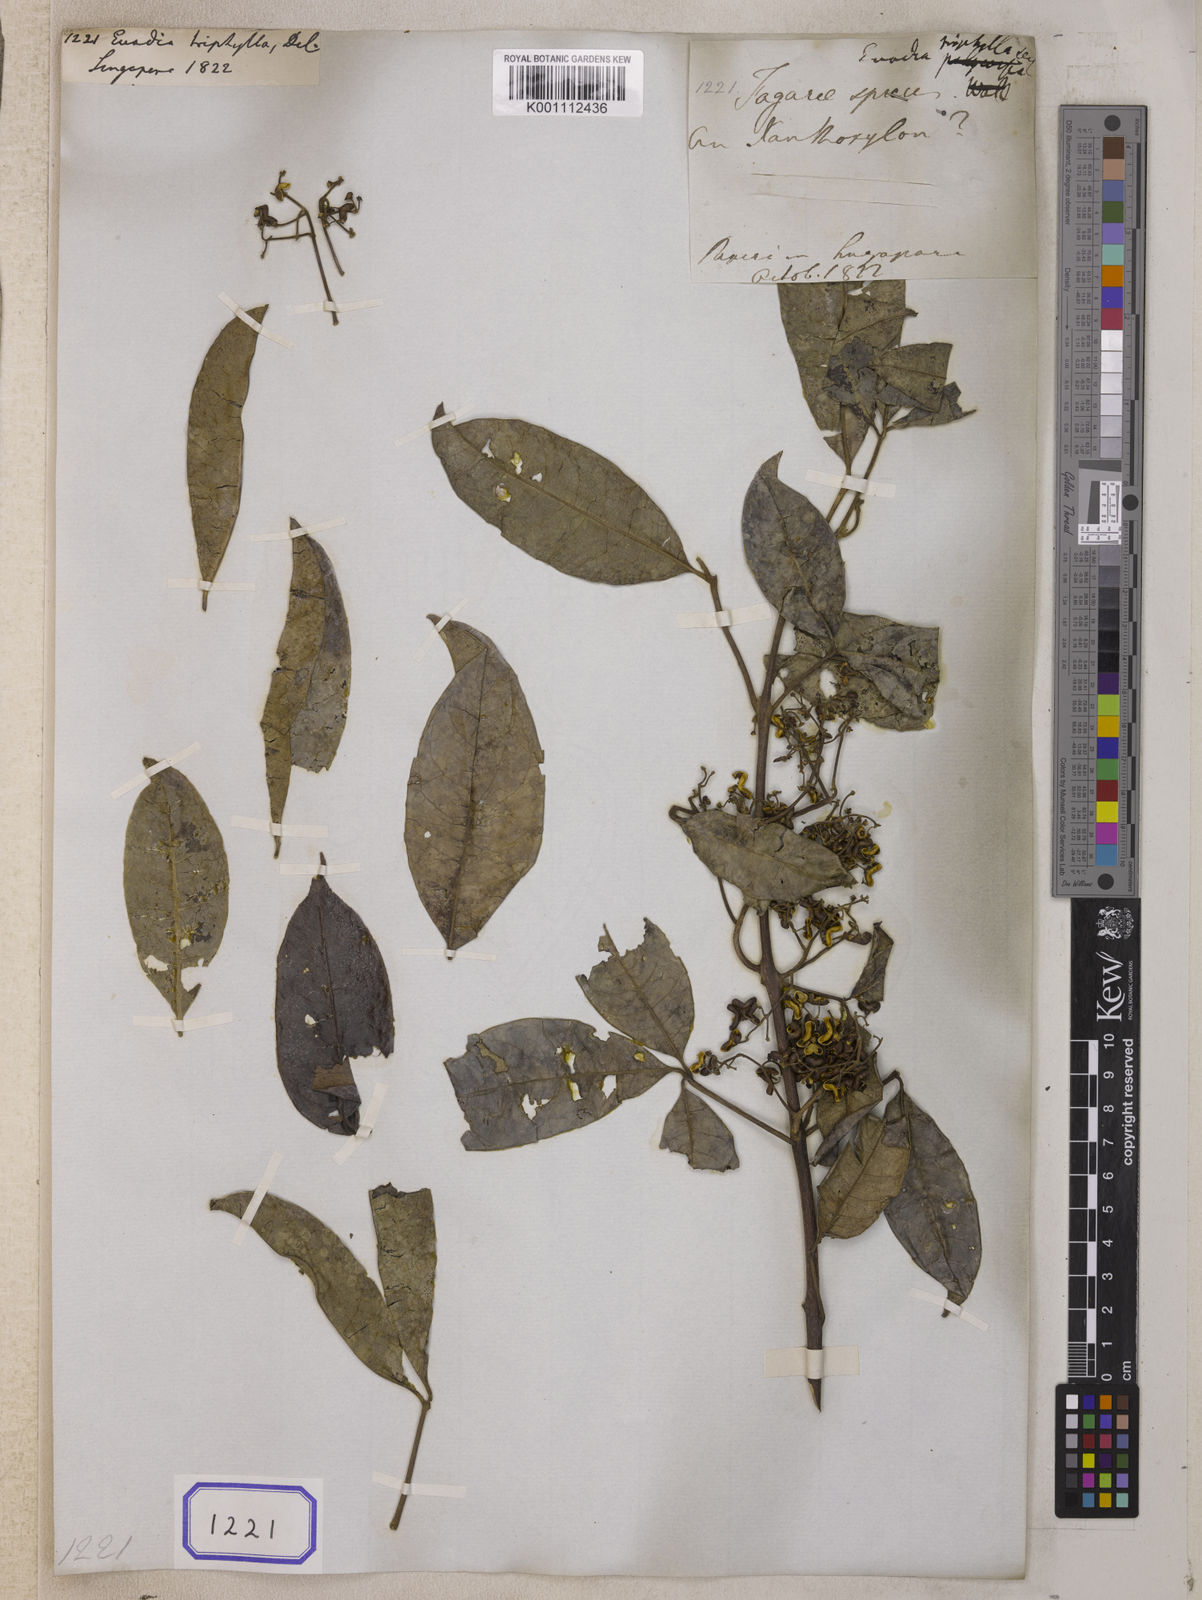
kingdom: Plantae
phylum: Tracheophyta
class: Magnoliopsida
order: Sapindales
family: Rutaceae
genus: Melicope
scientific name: Melicope triphylla
